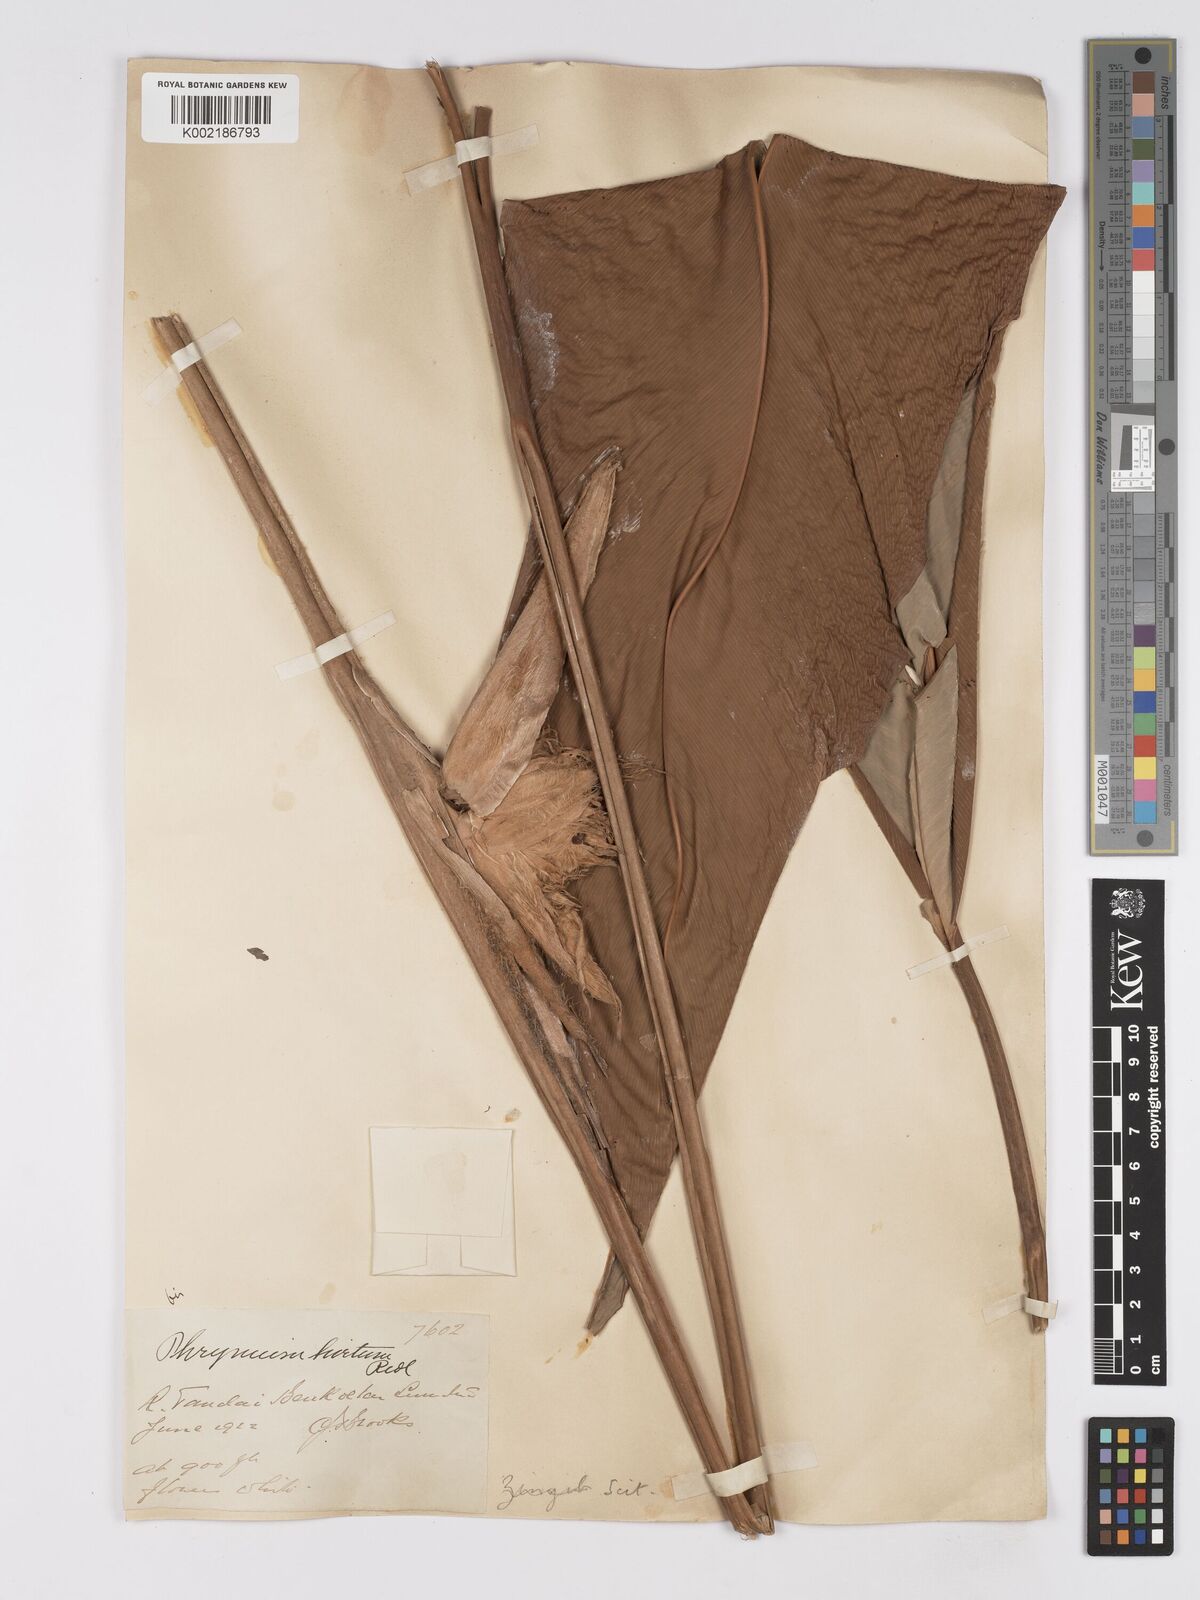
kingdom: Plantae
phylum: Tracheophyta
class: Liliopsida
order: Zingiberales
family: Marantaceae
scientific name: Marantaceae
